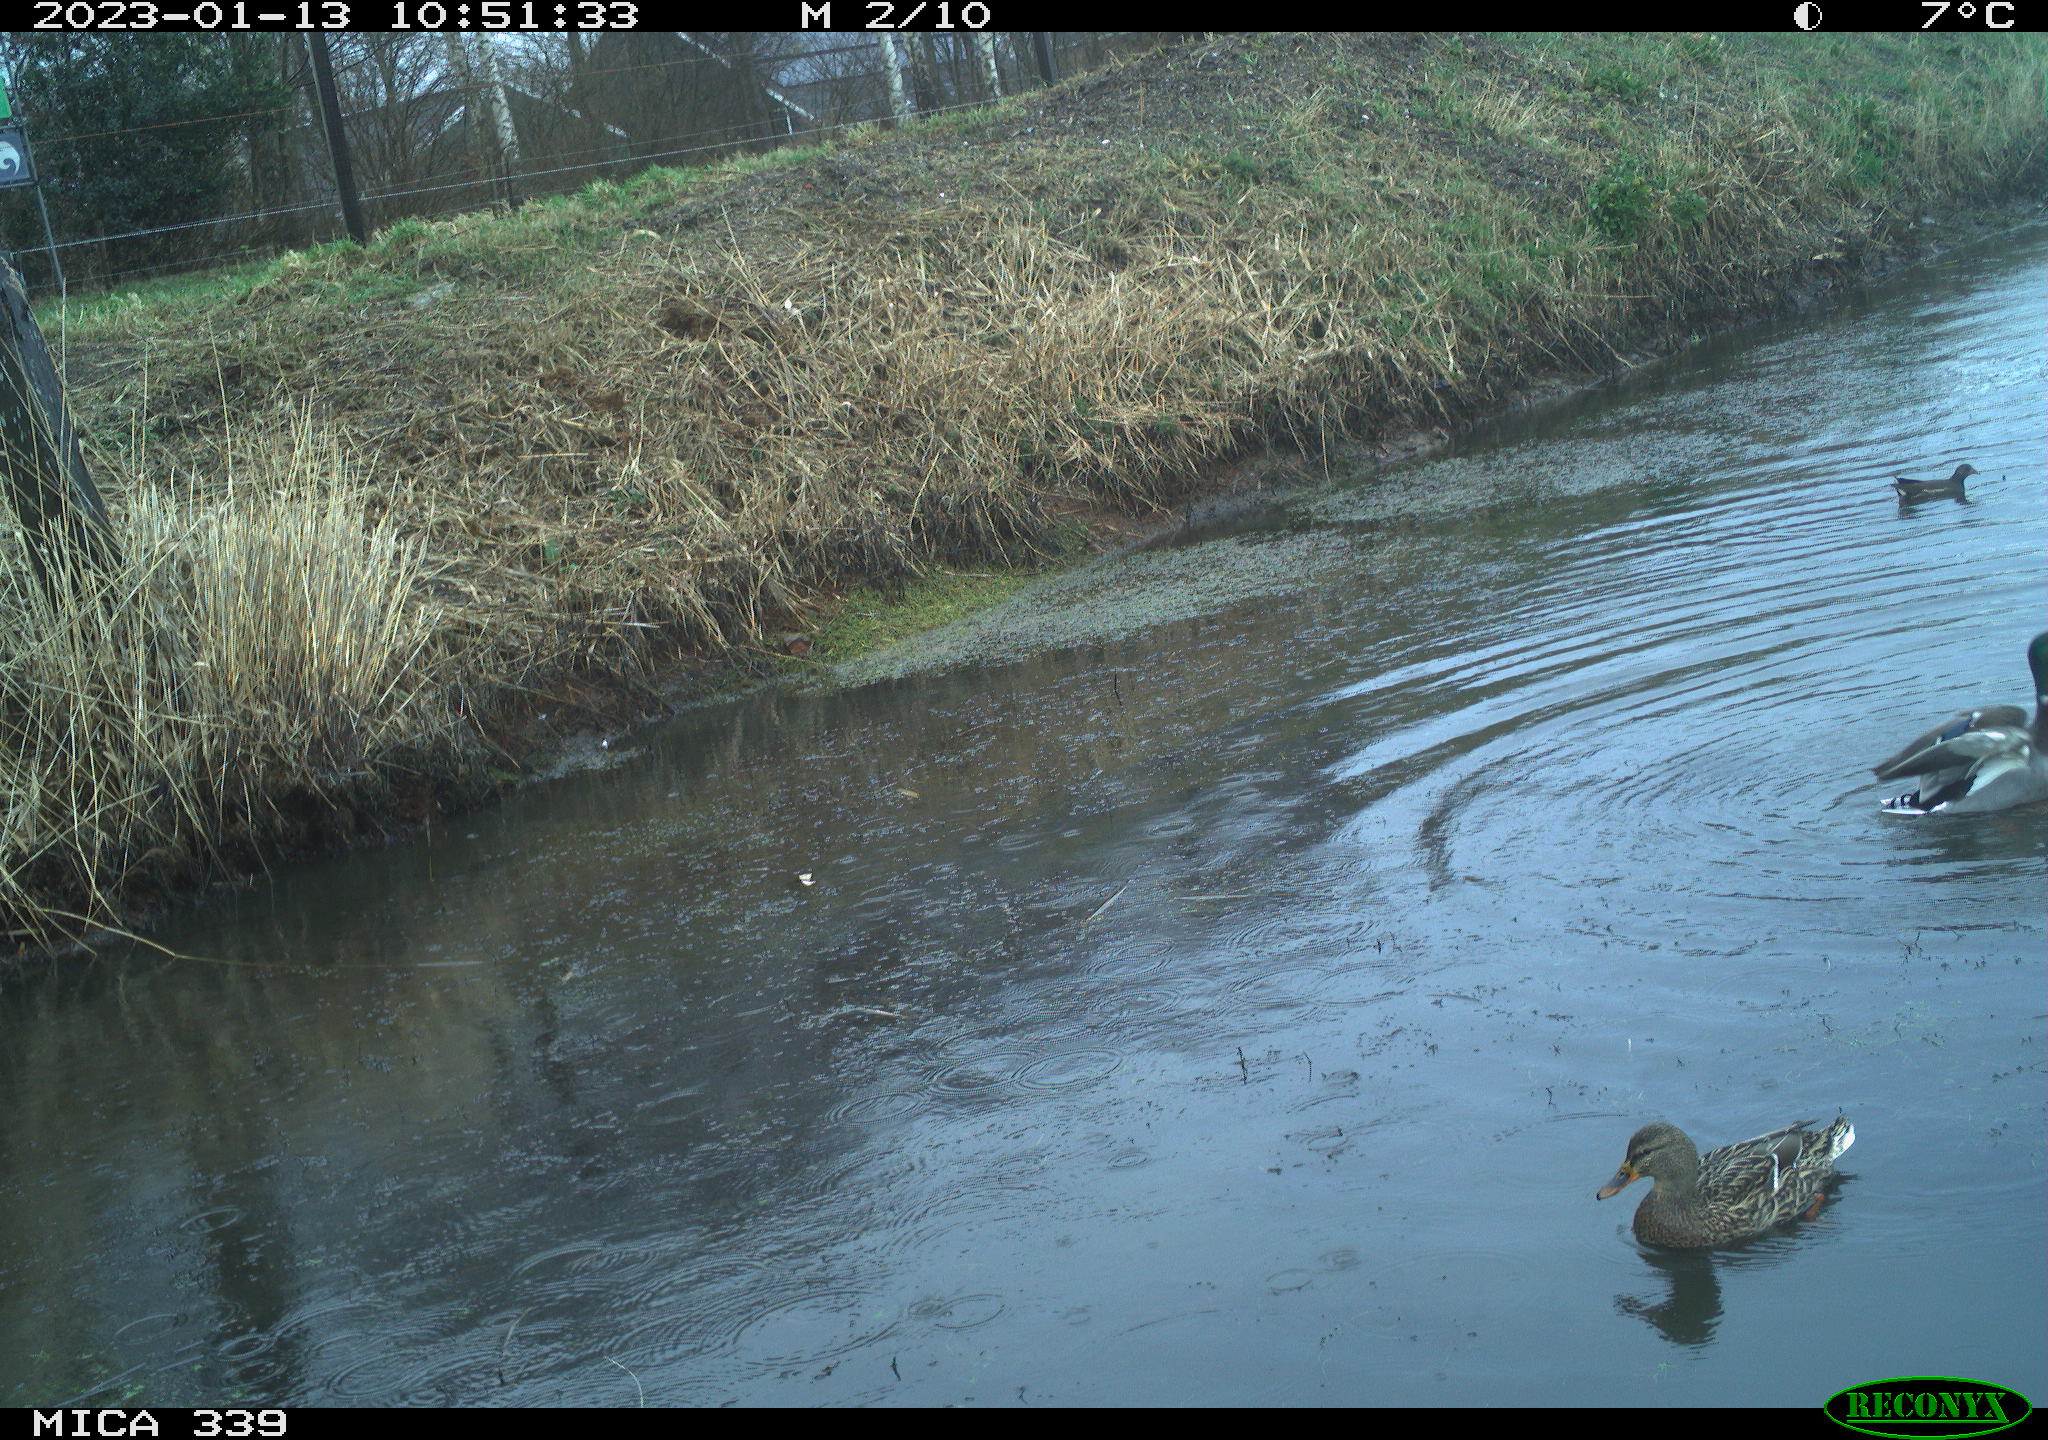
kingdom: Animalia
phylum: Chordata
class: Aves
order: Gruiformes
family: Rallidae
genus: Gallinula
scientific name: Gallinula chloropus
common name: Common moorhen
